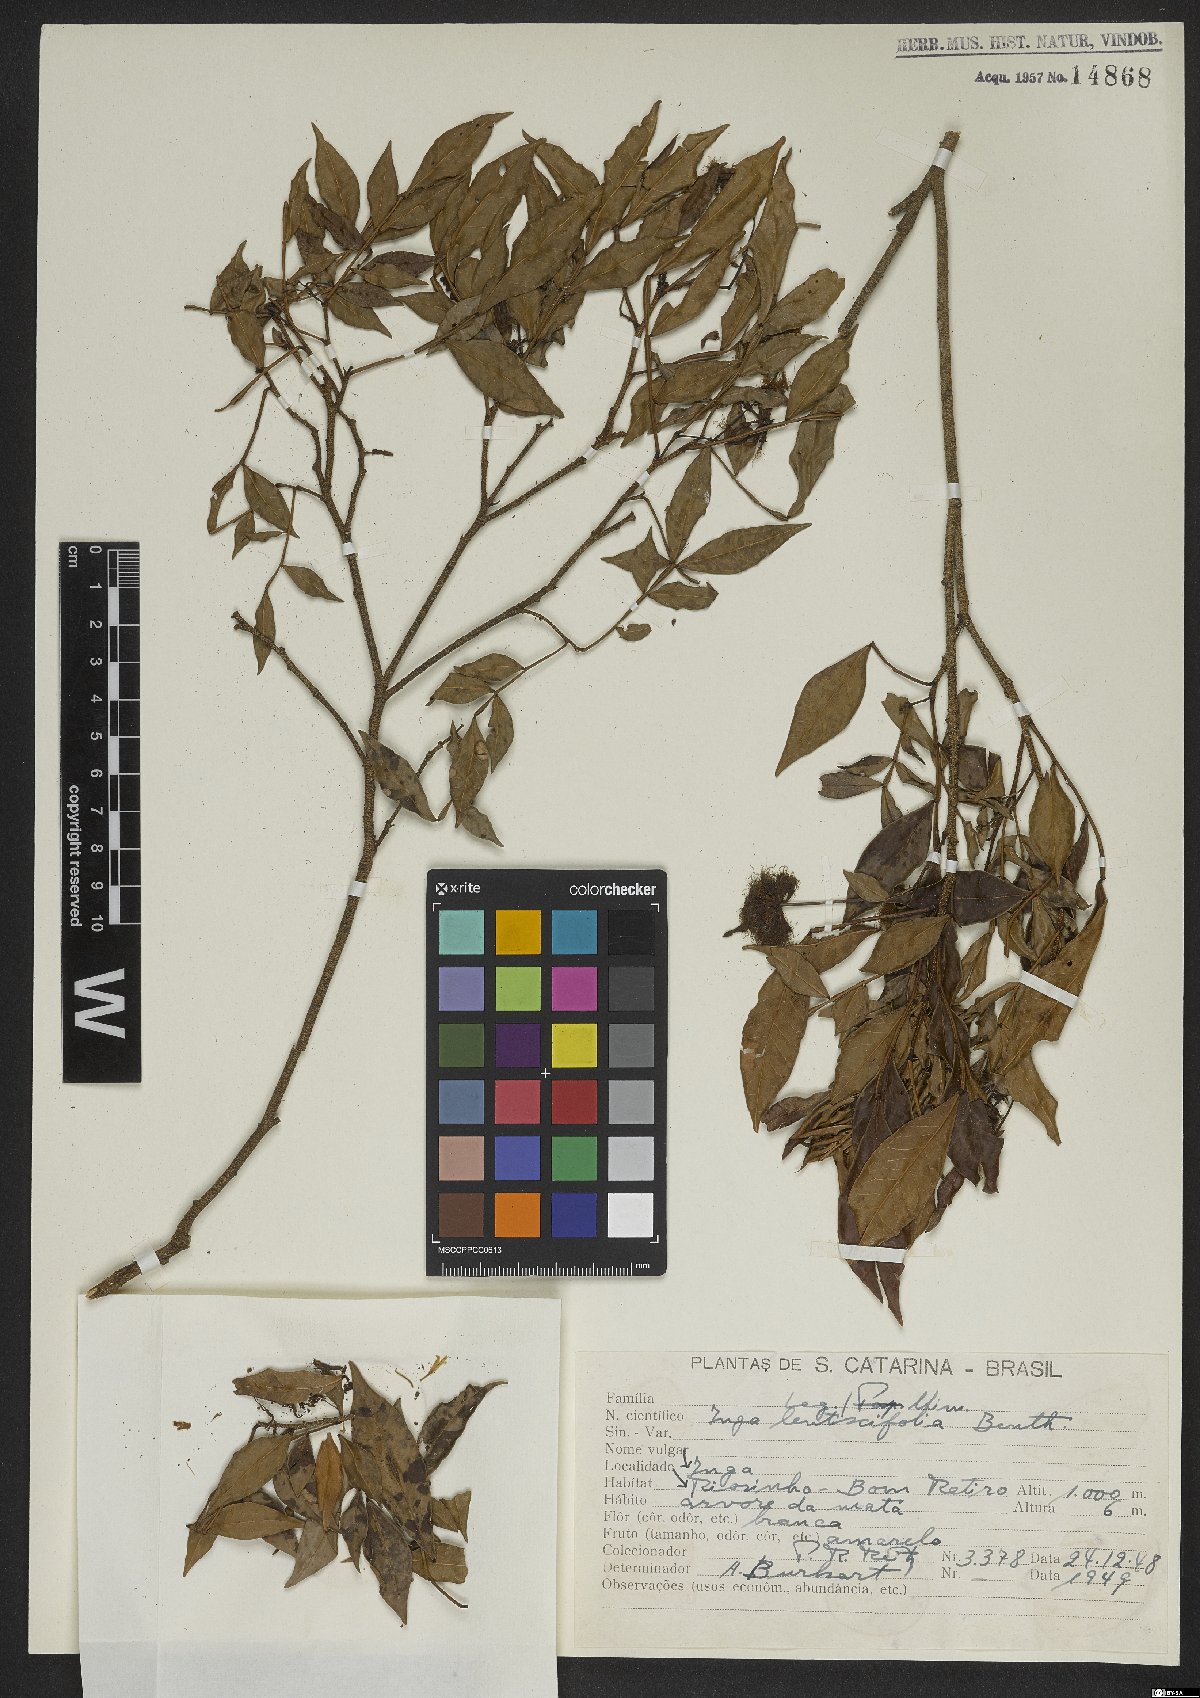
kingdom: Plantae
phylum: Tracheophyta
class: Magnoliopsida
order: Fabales
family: Fabaceae
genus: Inga
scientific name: Inga lentiscifolia
